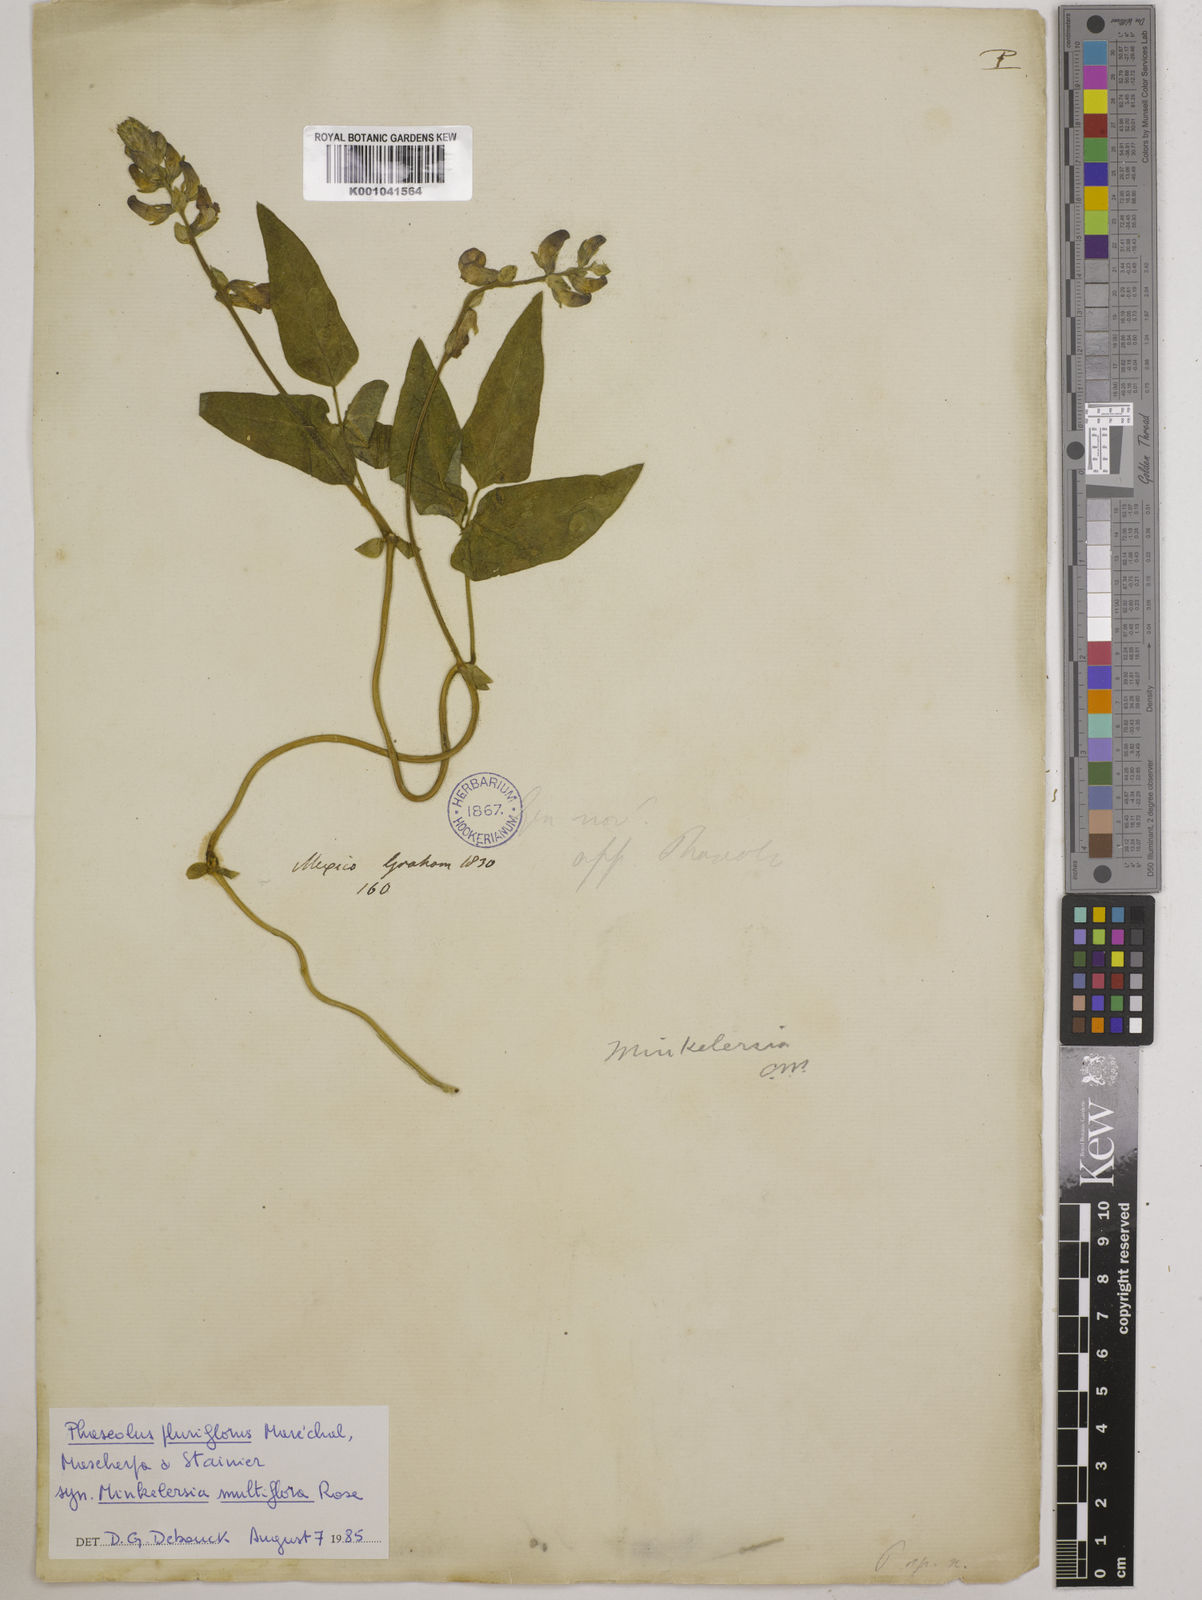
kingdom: Plantae
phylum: Tracheophyta
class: Magnoliopsida
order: Fabales
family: Fabaceae
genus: Phaseolus
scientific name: Phaseolus
